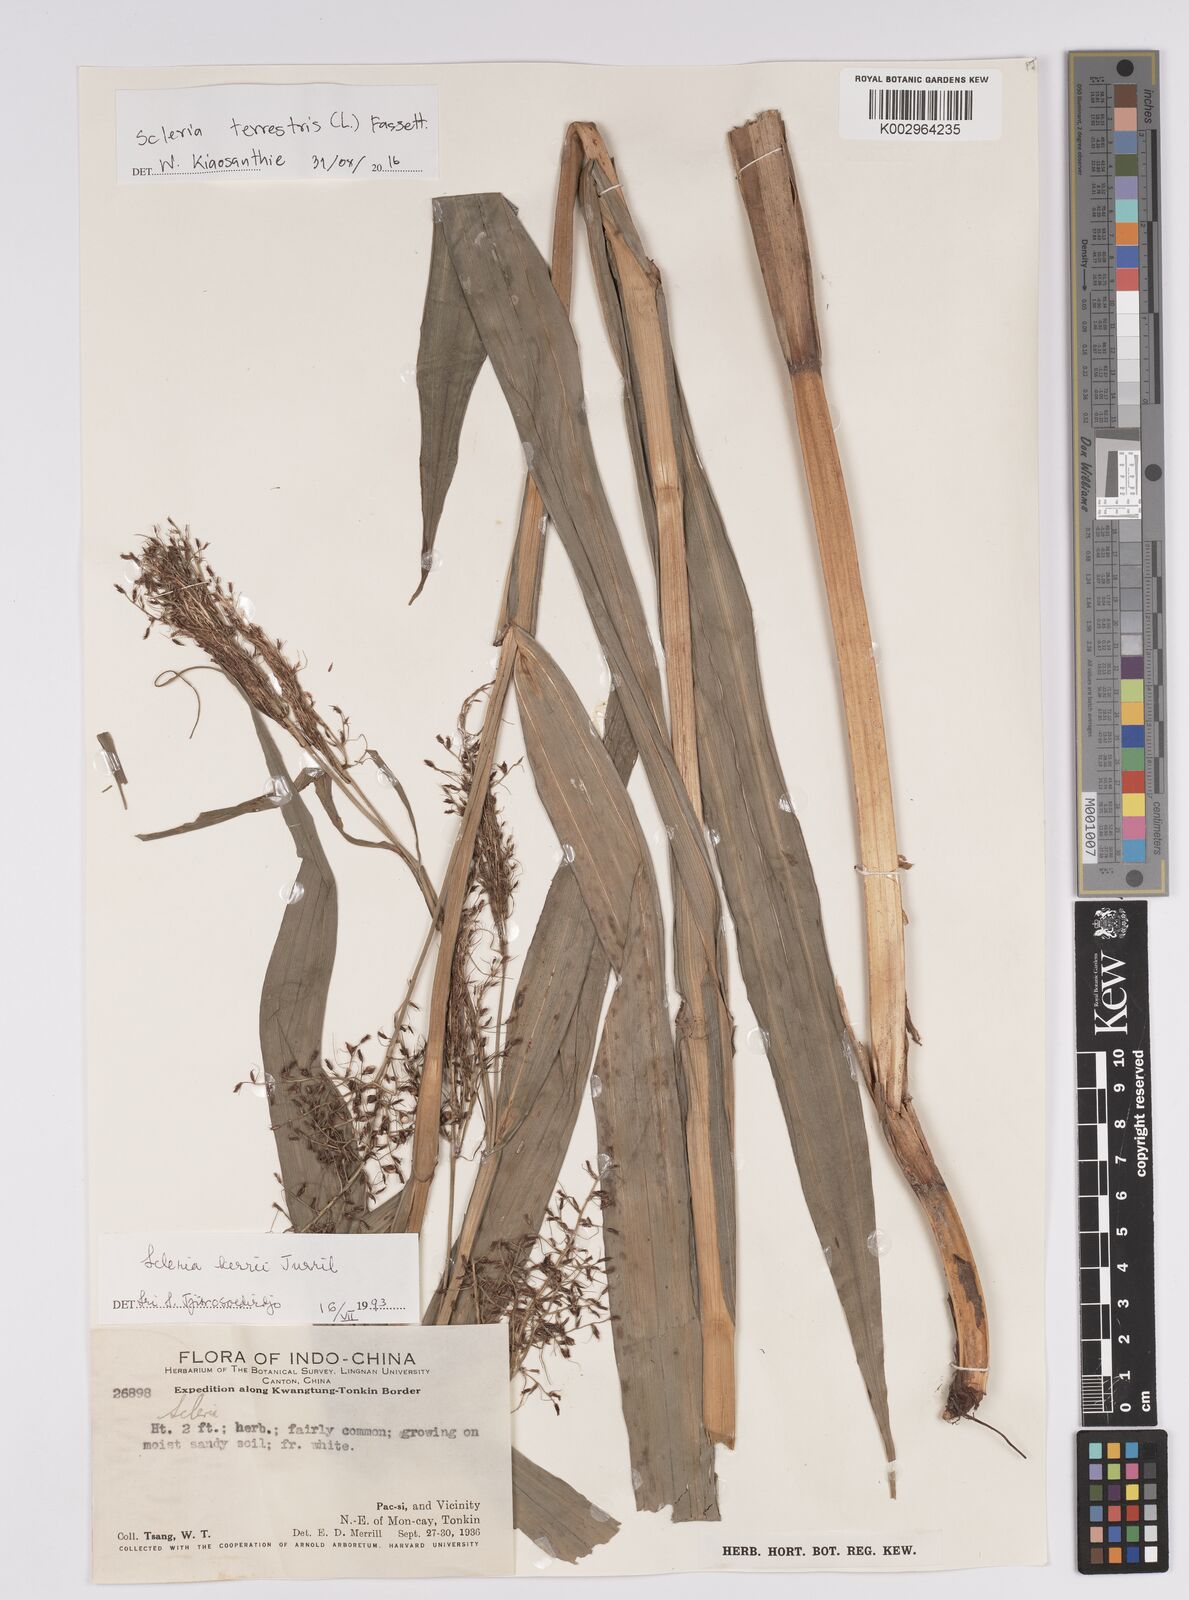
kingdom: Plantae
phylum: Tracheophyta
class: Liliopsida
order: Poales
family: Cyperaceae
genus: Scleria
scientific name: Scleria terrestris
